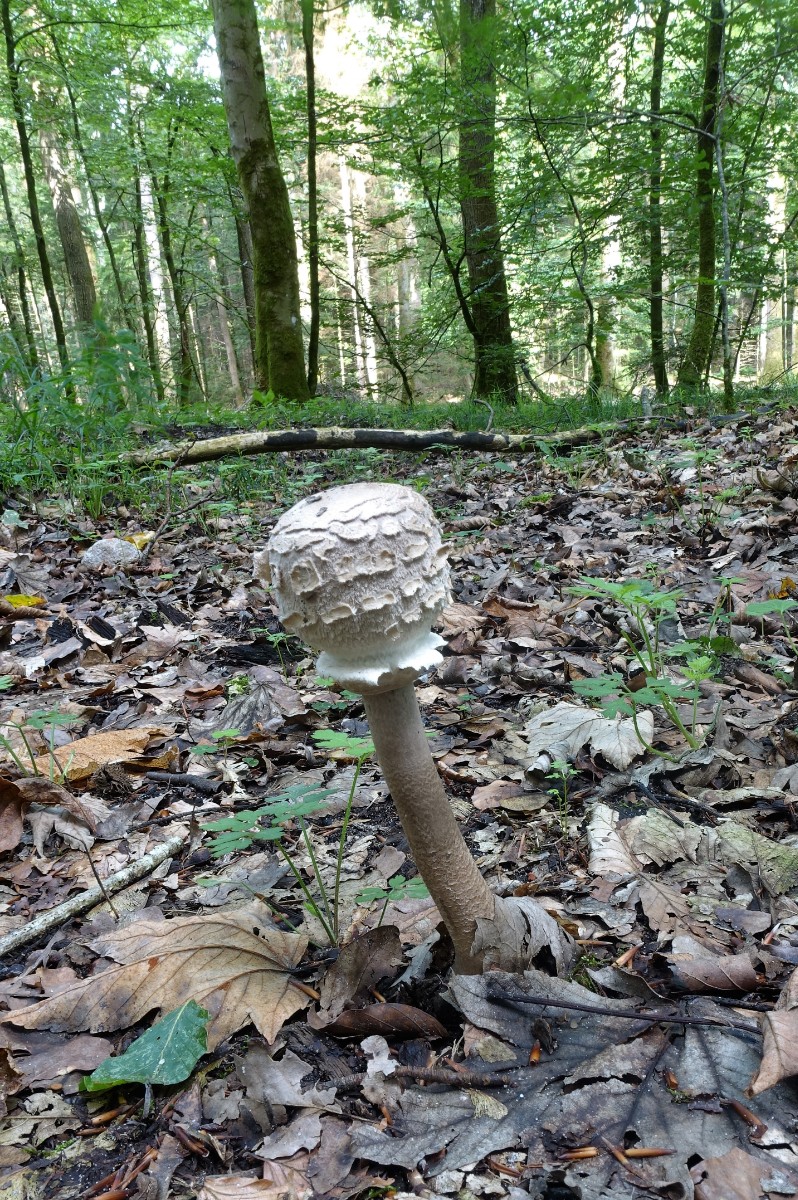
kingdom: Fungi
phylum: Basidiomycota
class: Agaricomycetes
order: Agaricales
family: Agaricaceae
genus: Macrolepiota
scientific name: Macrolepiota procera
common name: stor kæmpeparasolhat
